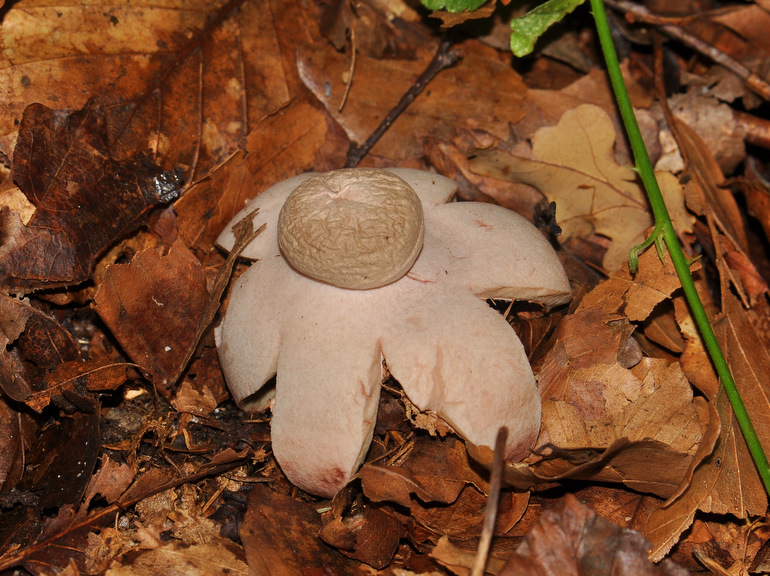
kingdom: Fungi
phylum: Basidiomycota
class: Agaricomycetes
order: Geastrales
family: Geastraceae
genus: Geastrum
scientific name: Geastrum rufescens
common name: kødfarvet stjernebold
